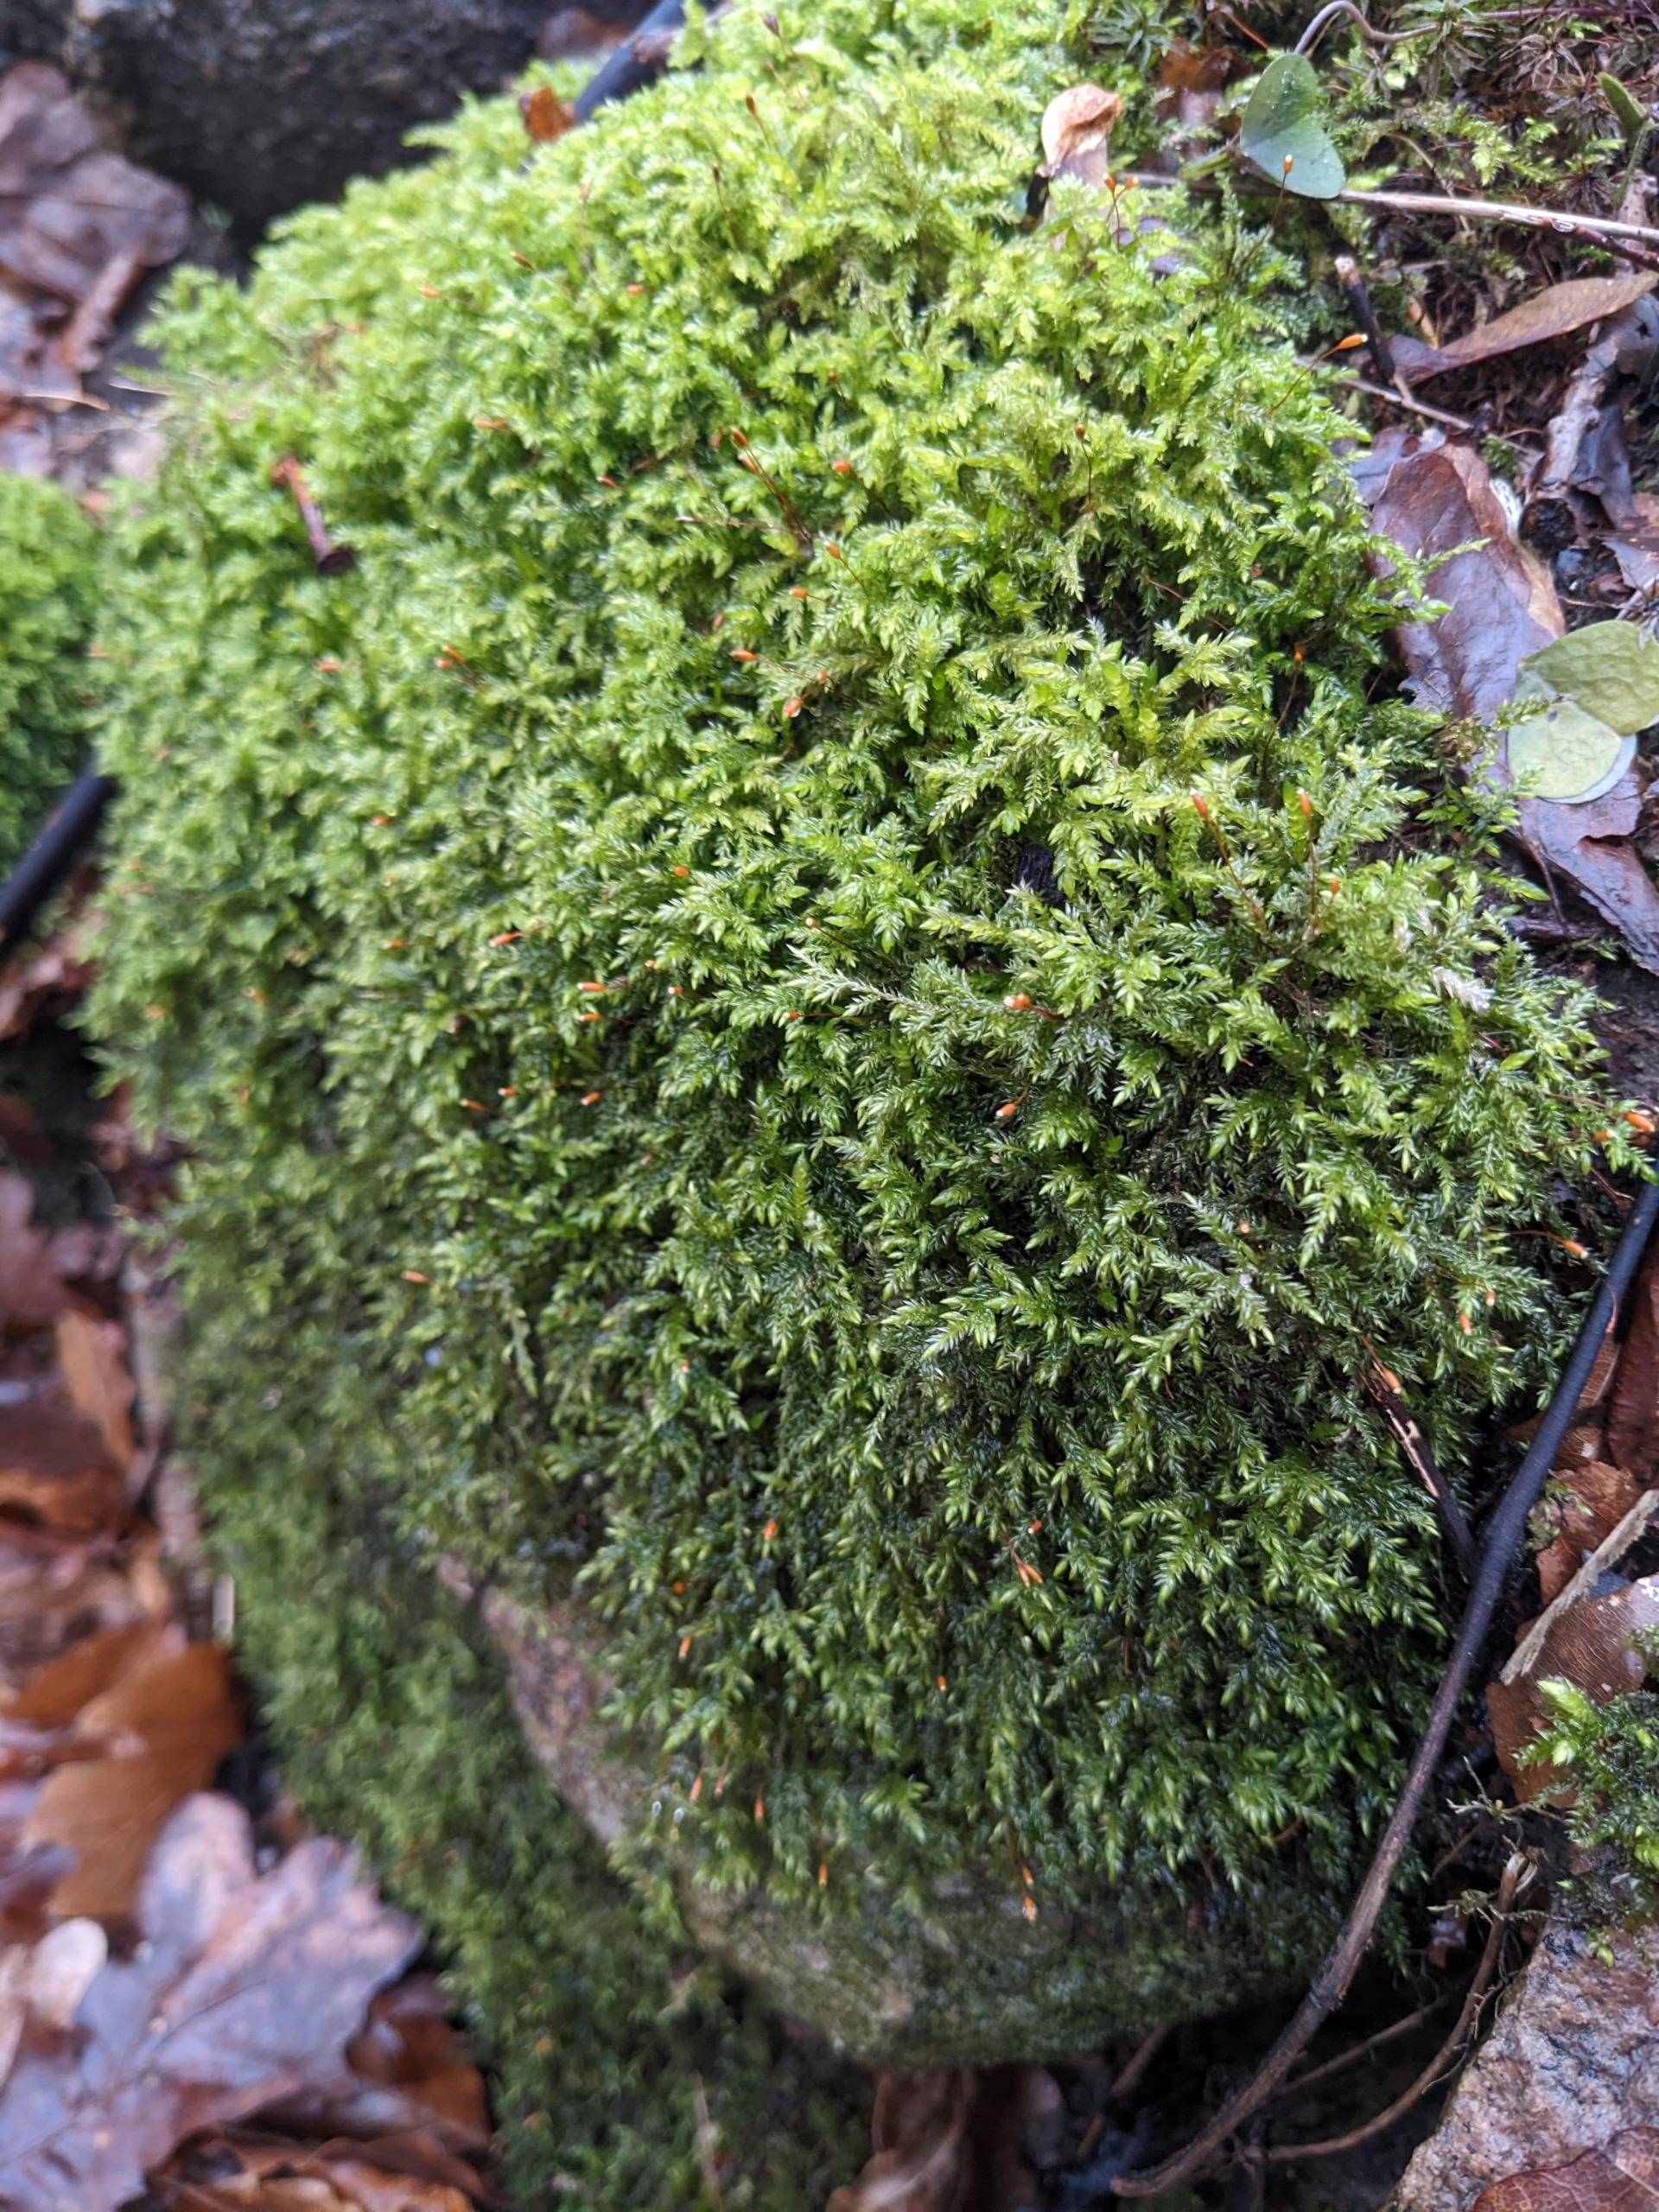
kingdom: Plantae
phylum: Bryophyta
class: Bryopsida
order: Hypnales
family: Lembophyllaceae
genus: Isothecium
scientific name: Isothecium alopecuroides
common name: Stor stammemos
